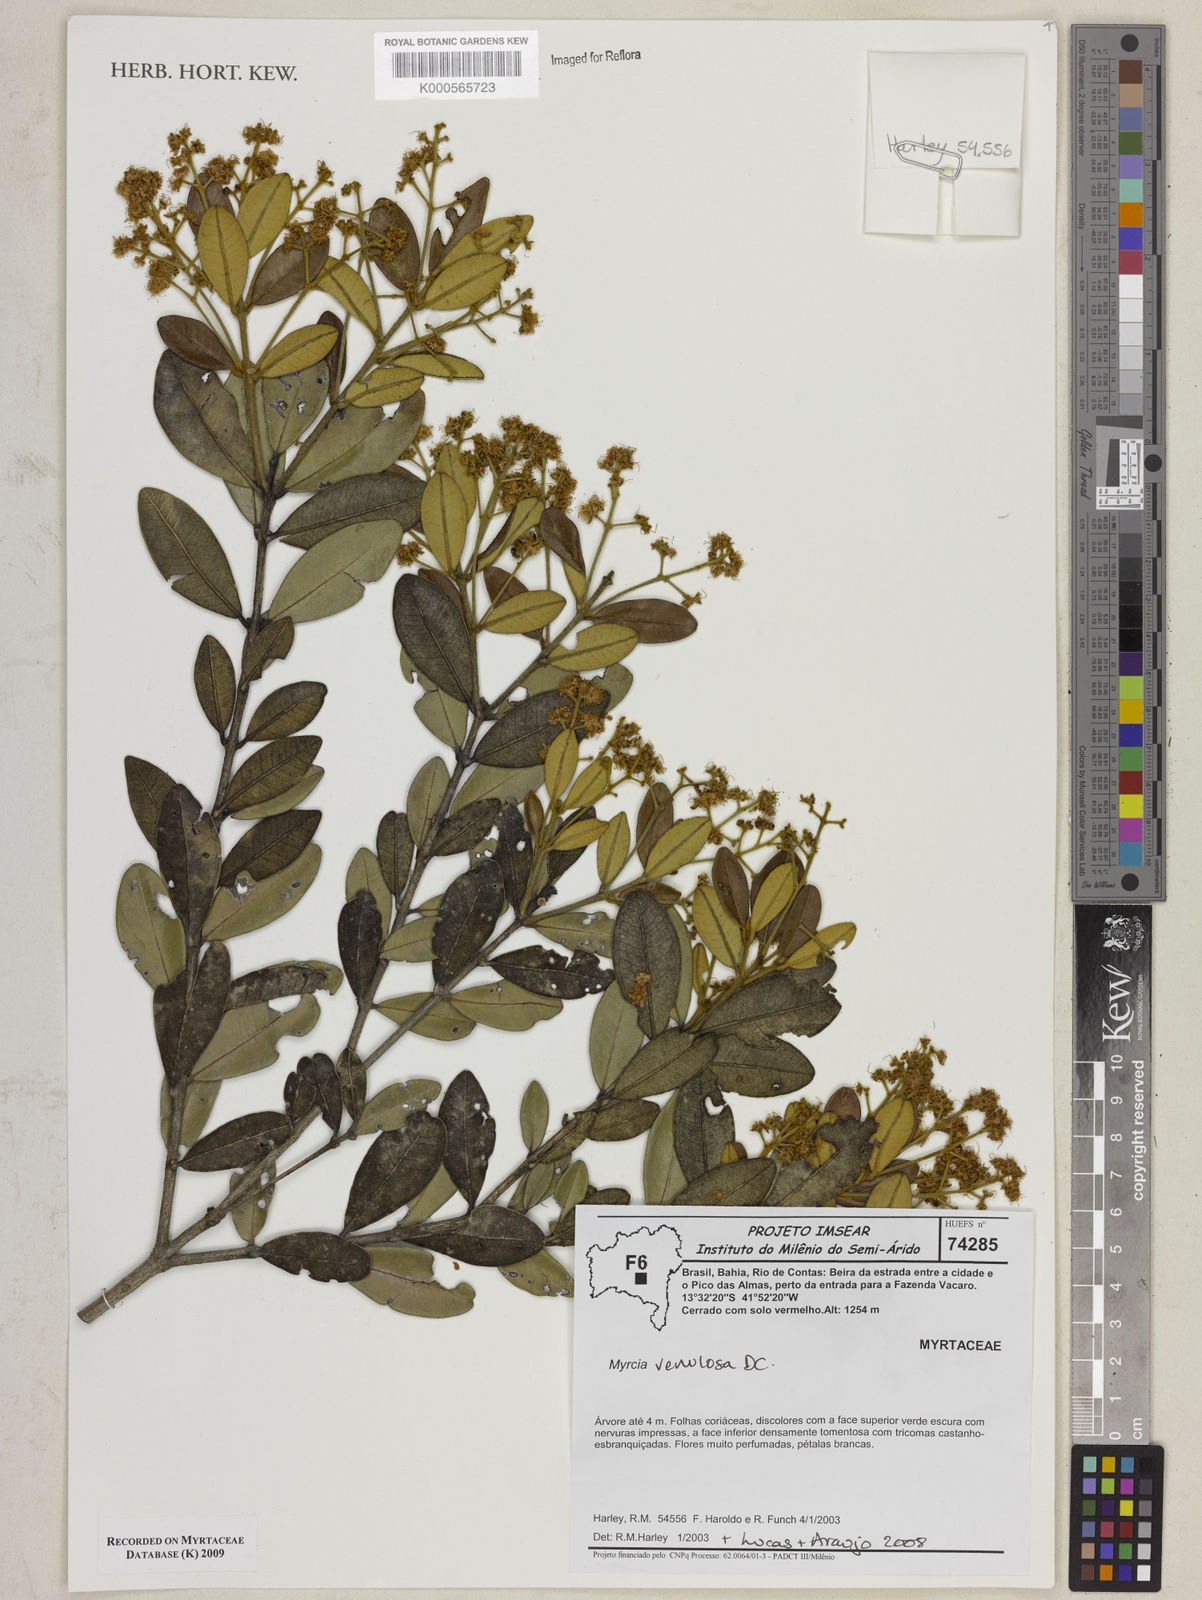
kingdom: Plantae
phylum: Tracheophyta
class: Magnoliopsida
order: Myrtales
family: Myrtaceae
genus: Myrcia
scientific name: Myrcia venulosa
